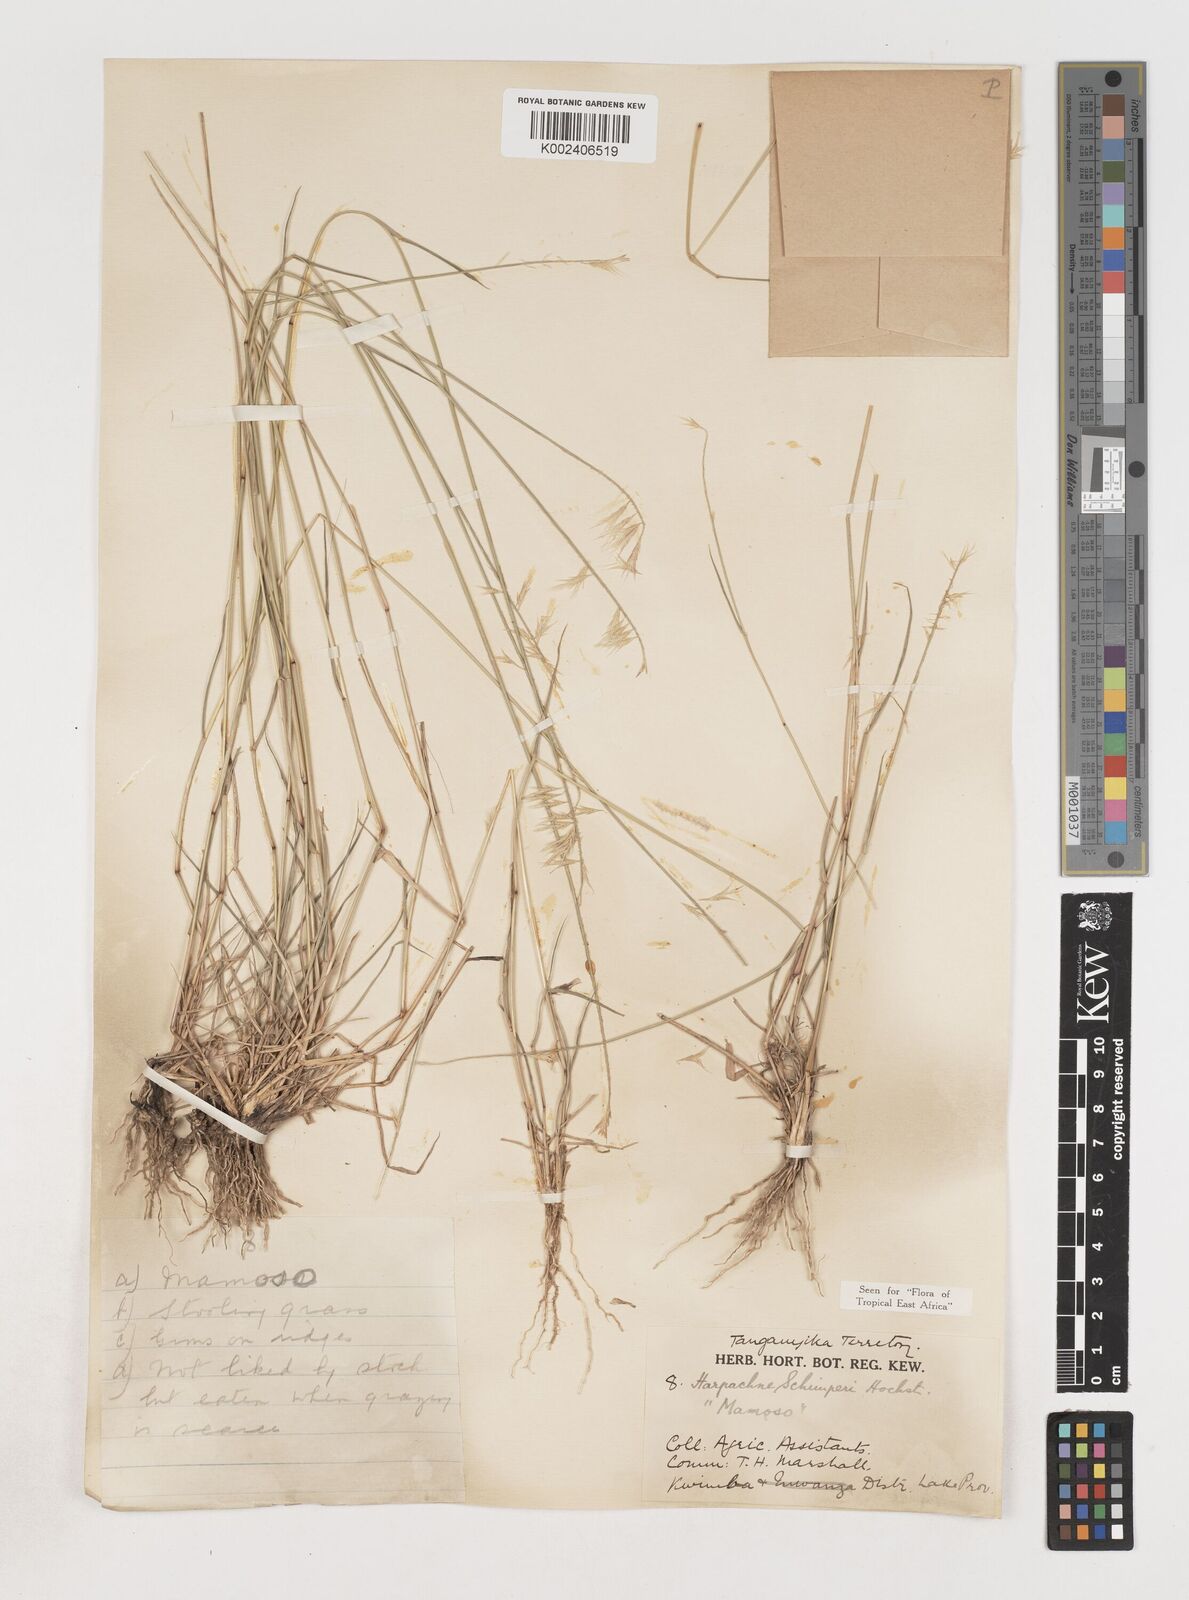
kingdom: Plantae
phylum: Tracheophyta
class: Liliopsida
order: Poales
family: Poaceae
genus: Harpachne
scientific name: Harpachne schimperi
